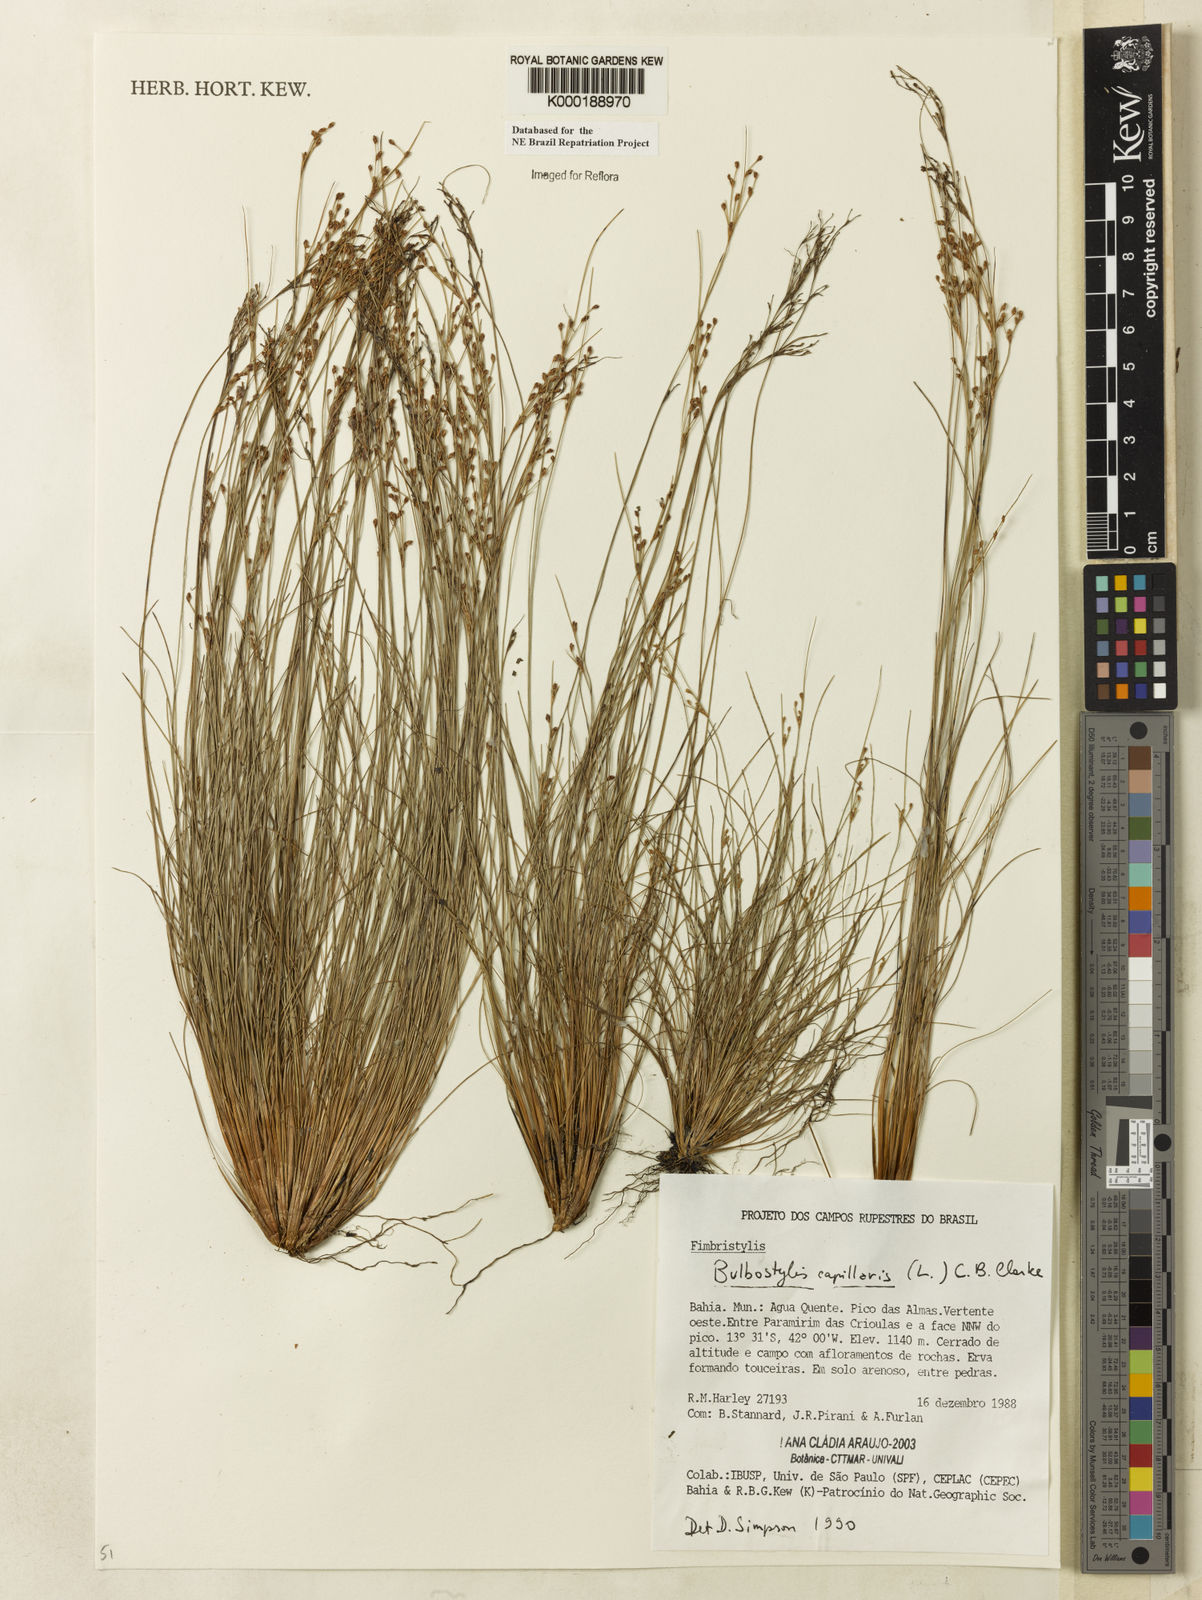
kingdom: Plantae
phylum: Tracheophyta
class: Liliopsida
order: Poales
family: Cyperaceae
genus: Bulbostylis
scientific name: Bulbostylis capillaris
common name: Densetuft hairsedge
